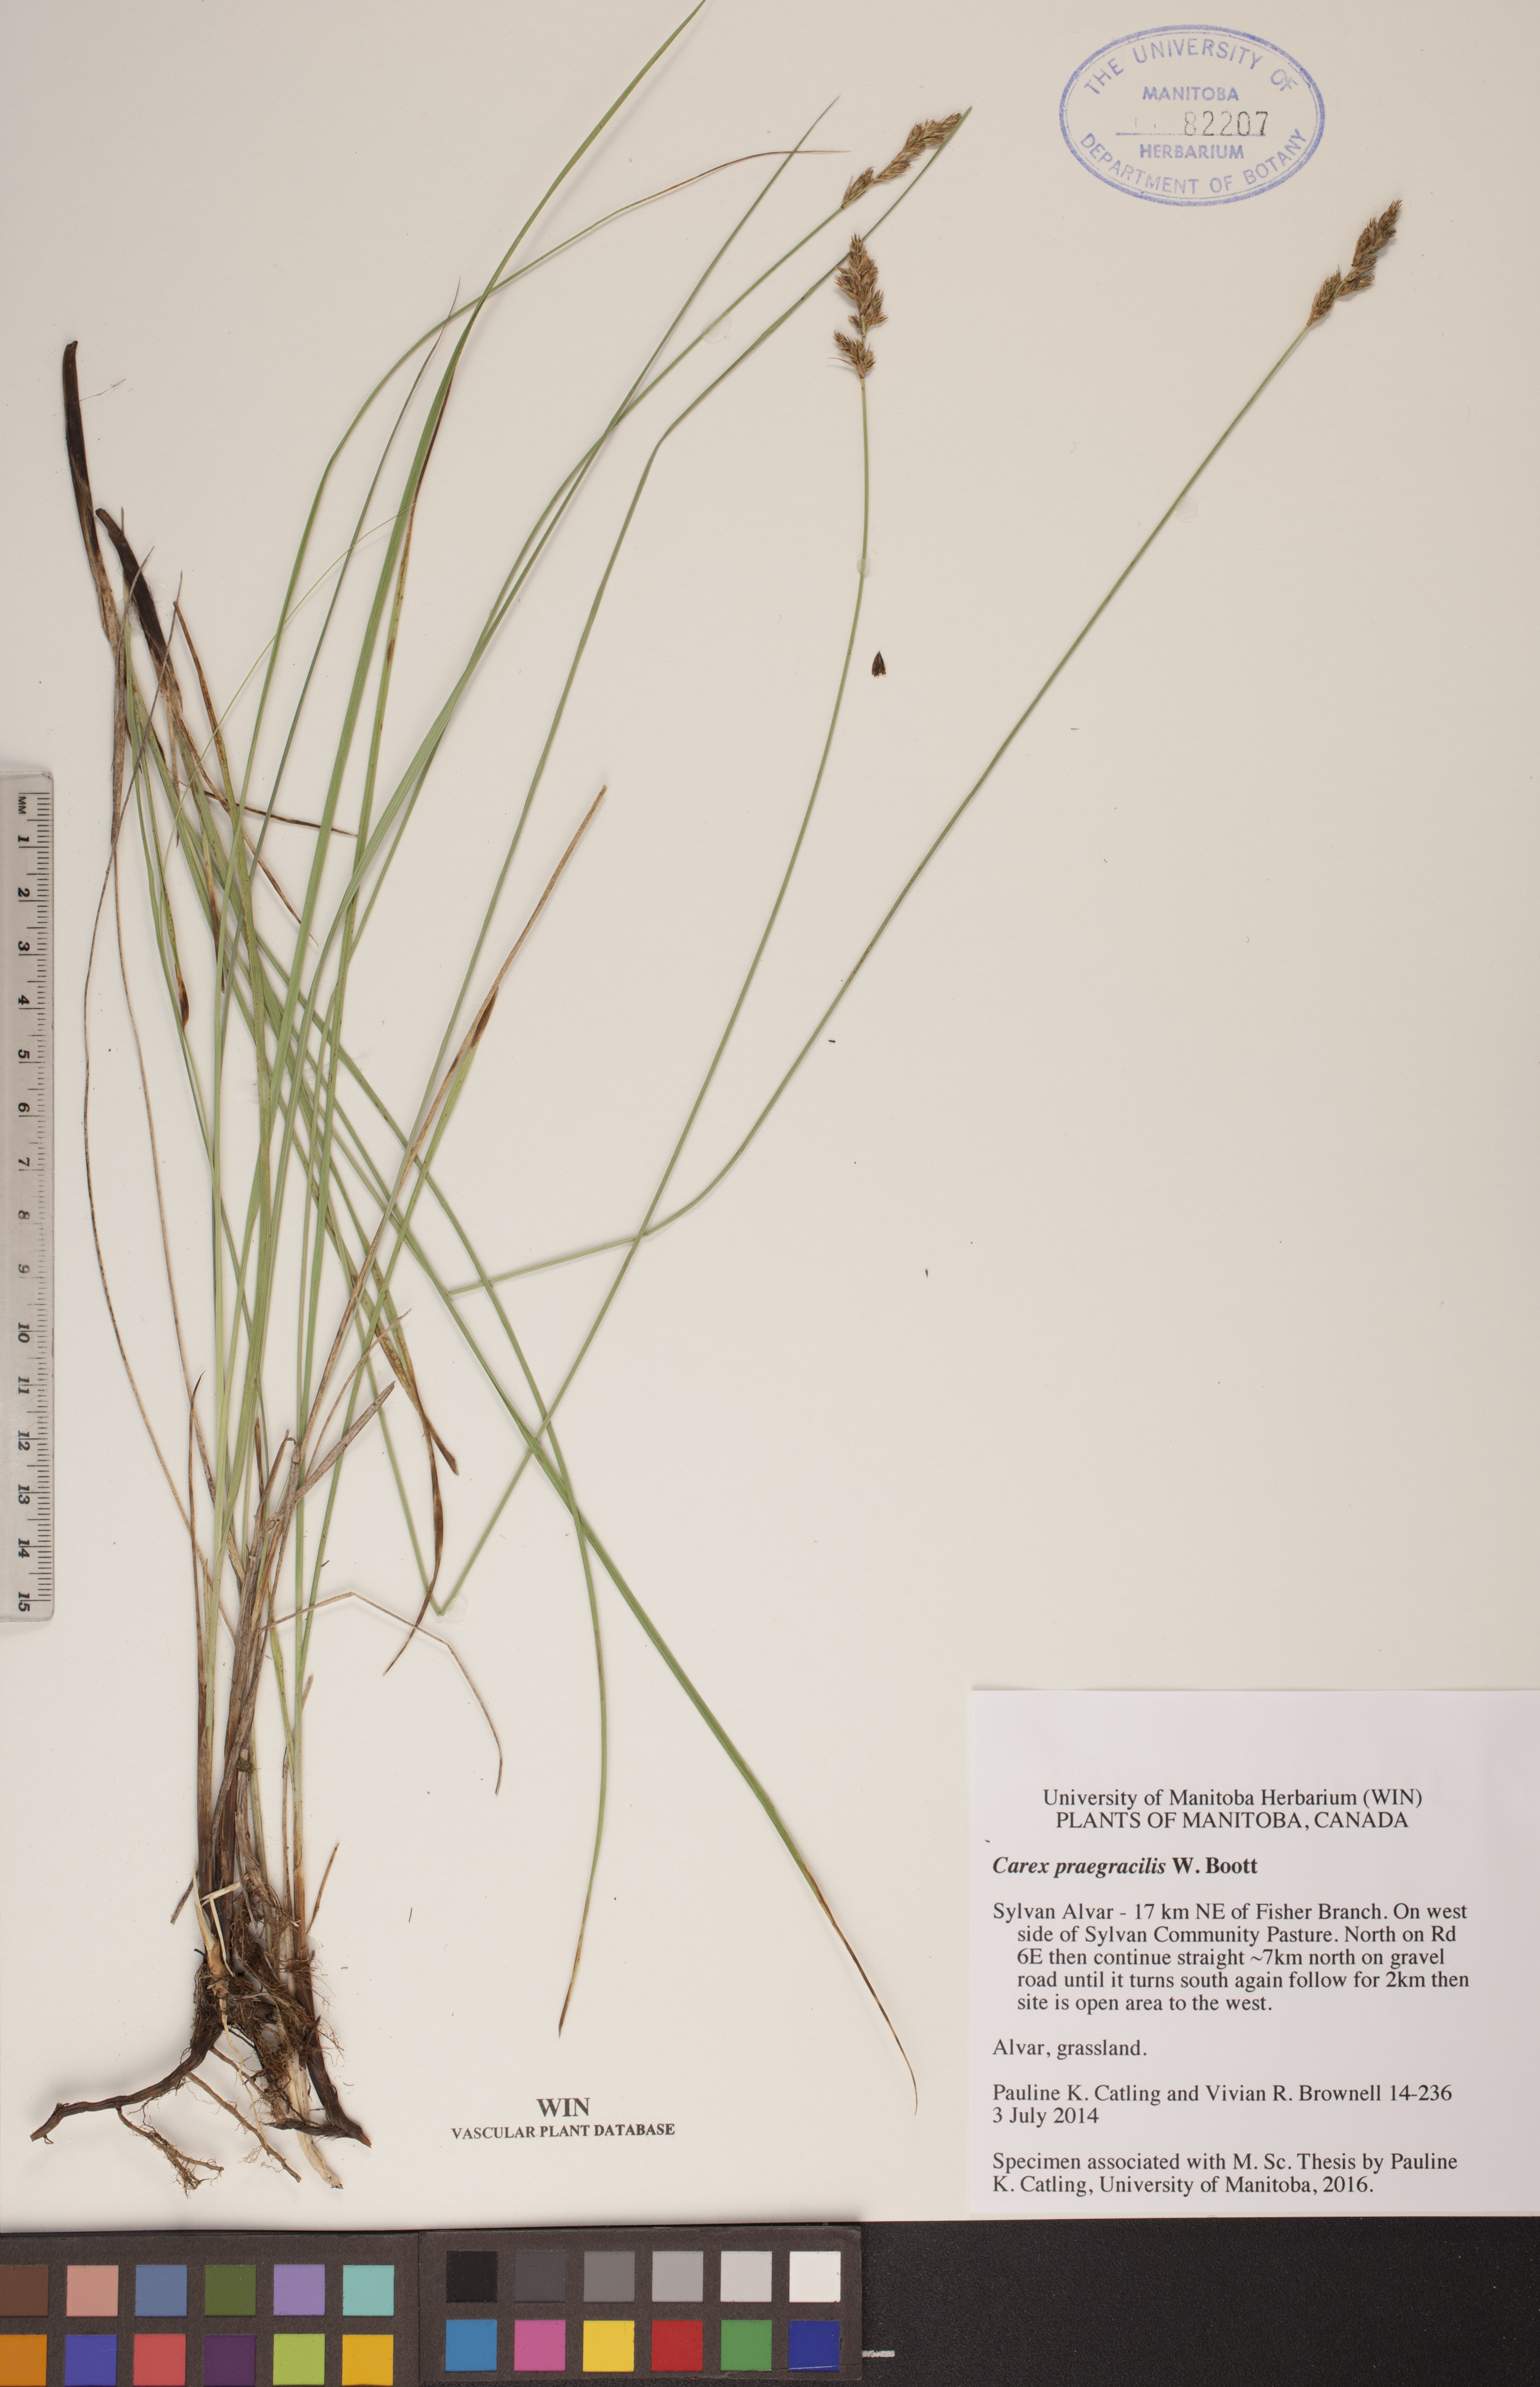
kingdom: Plantae
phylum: Tracheophyta
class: Liliopsida
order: Poales
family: Cyperaceae
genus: Carex
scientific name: Carex praegracilis
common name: Black creeper sedge
